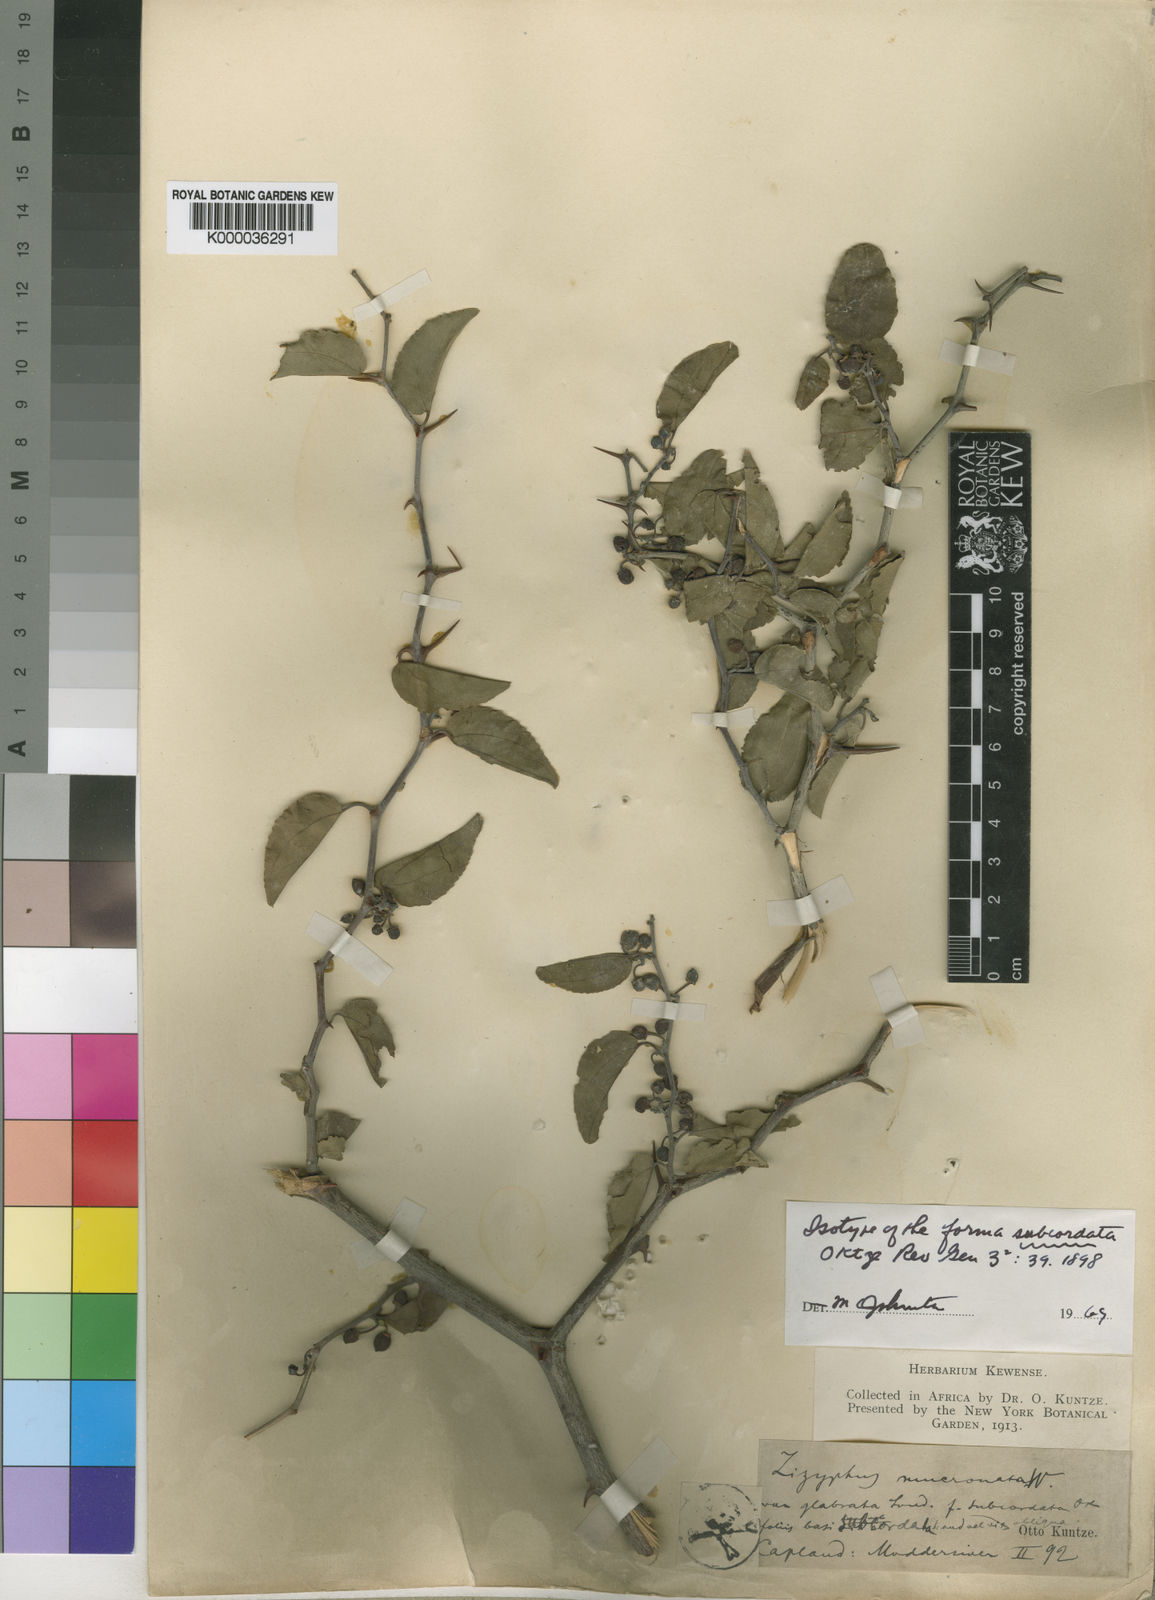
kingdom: Plantae
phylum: Tracheophyta
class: Magnoliopsida
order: Rosales
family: Rhamnaceae
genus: Ziziphus
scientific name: Ziziphus mucronata
